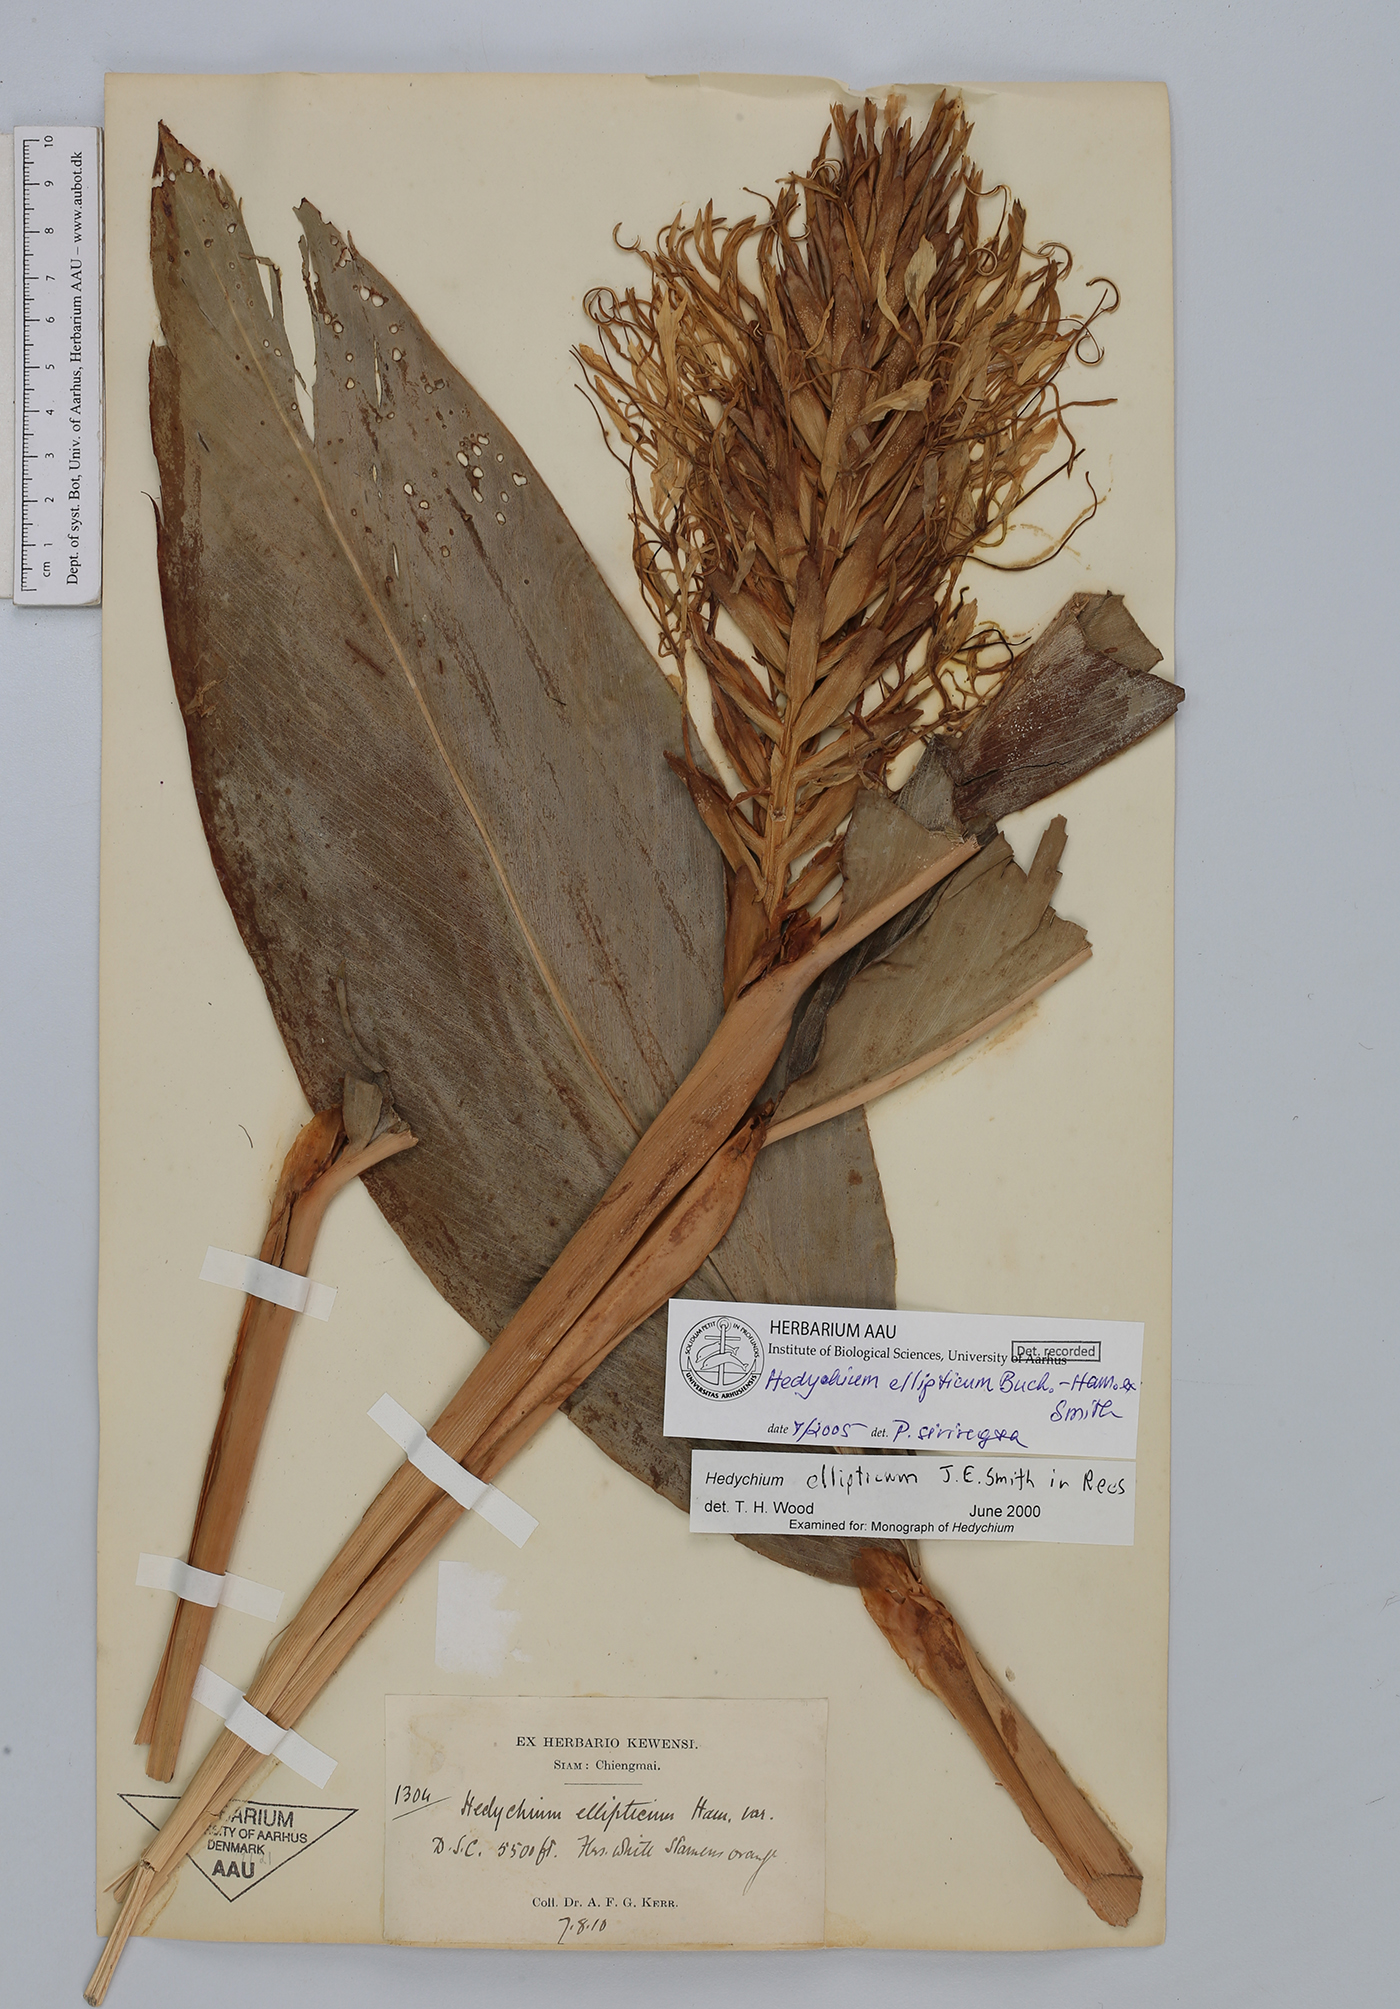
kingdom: Plantae
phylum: Tracheophyta
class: Liliopsida
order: Zingiberales
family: Zingiberaceae
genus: Hedychium
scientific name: Hedychium ellipticum
